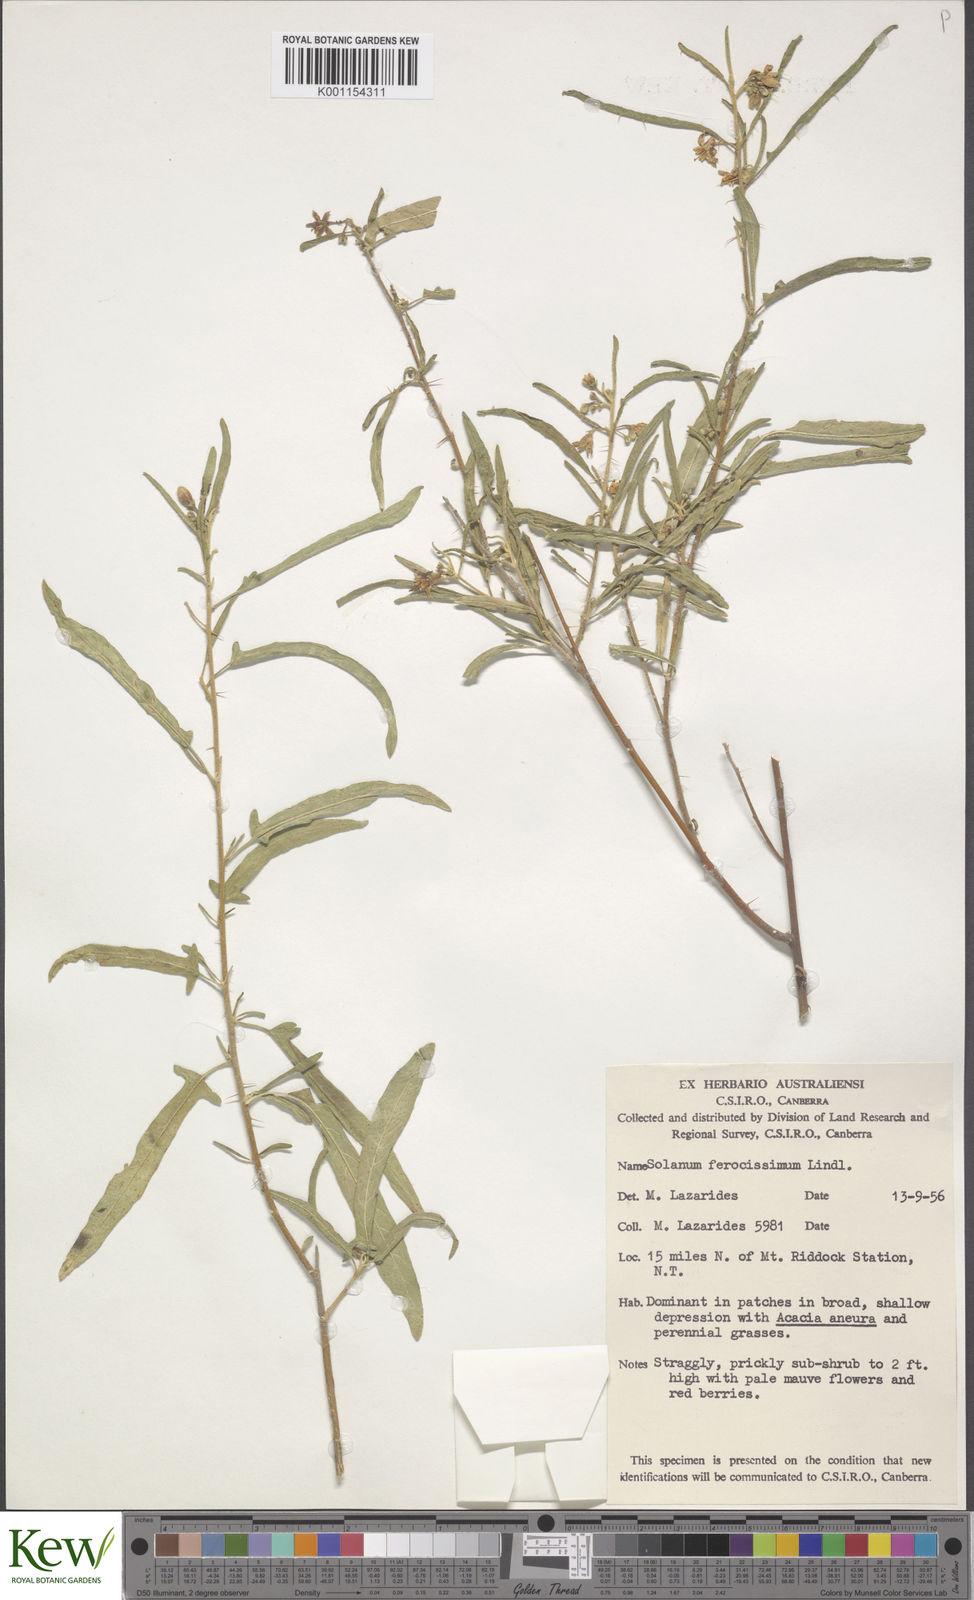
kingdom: Plantae
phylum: Tracheophyta
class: Magnoliopsida
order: Solanales
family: Solanaceae
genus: Solanum
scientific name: Solanum ferocissimum
